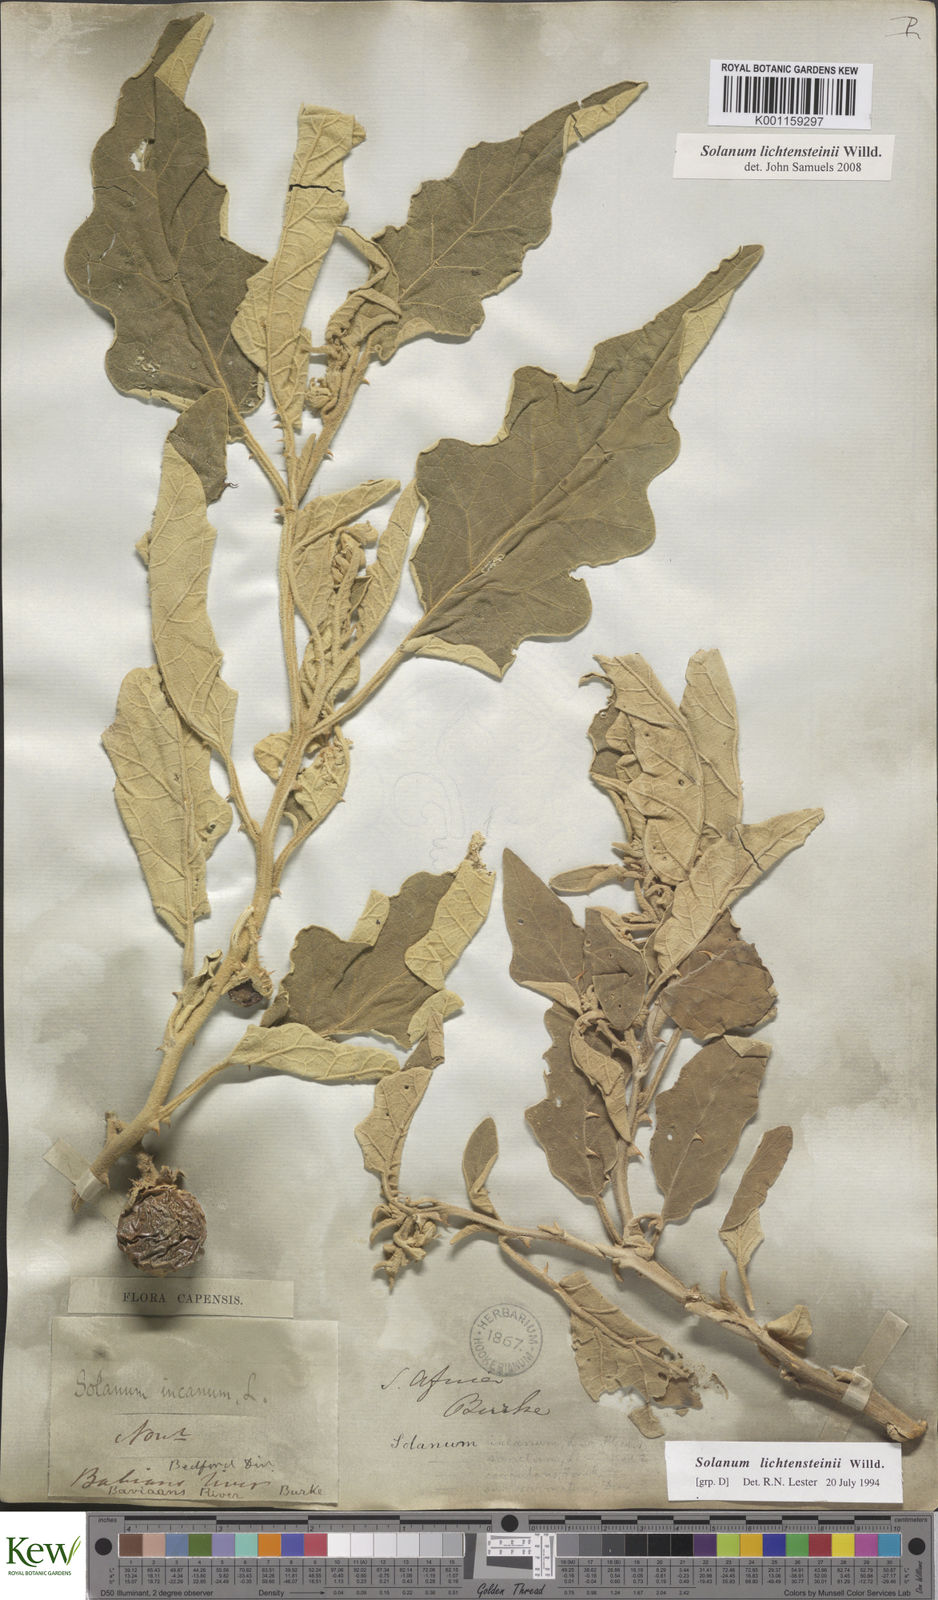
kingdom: Plantae
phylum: Tracheophyta
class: Magnoliopsida
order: Solanales
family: Solanaceae
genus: Solanum
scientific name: Solanum lichtensteinii
